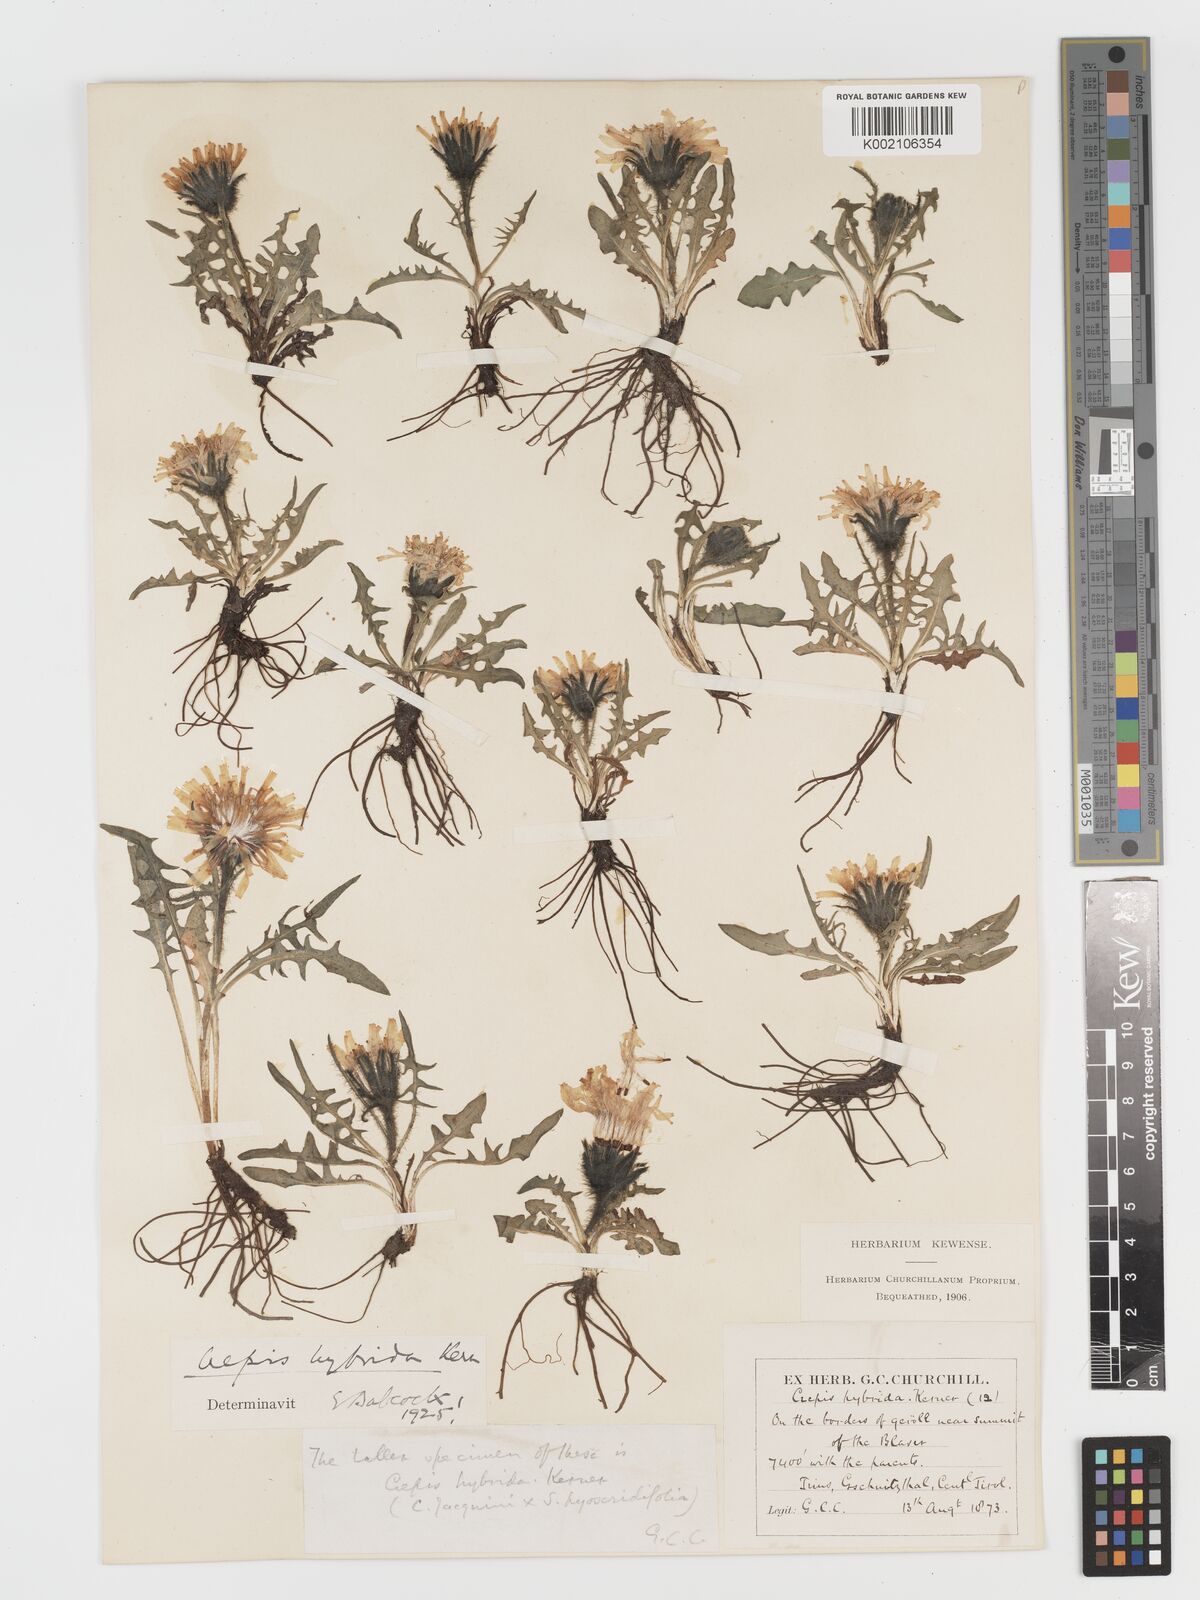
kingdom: Plantae
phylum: Tracheophyta
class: Magnoliopsida
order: Asterales
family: Asteraceae
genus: Crepis
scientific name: Crepis hybrida
